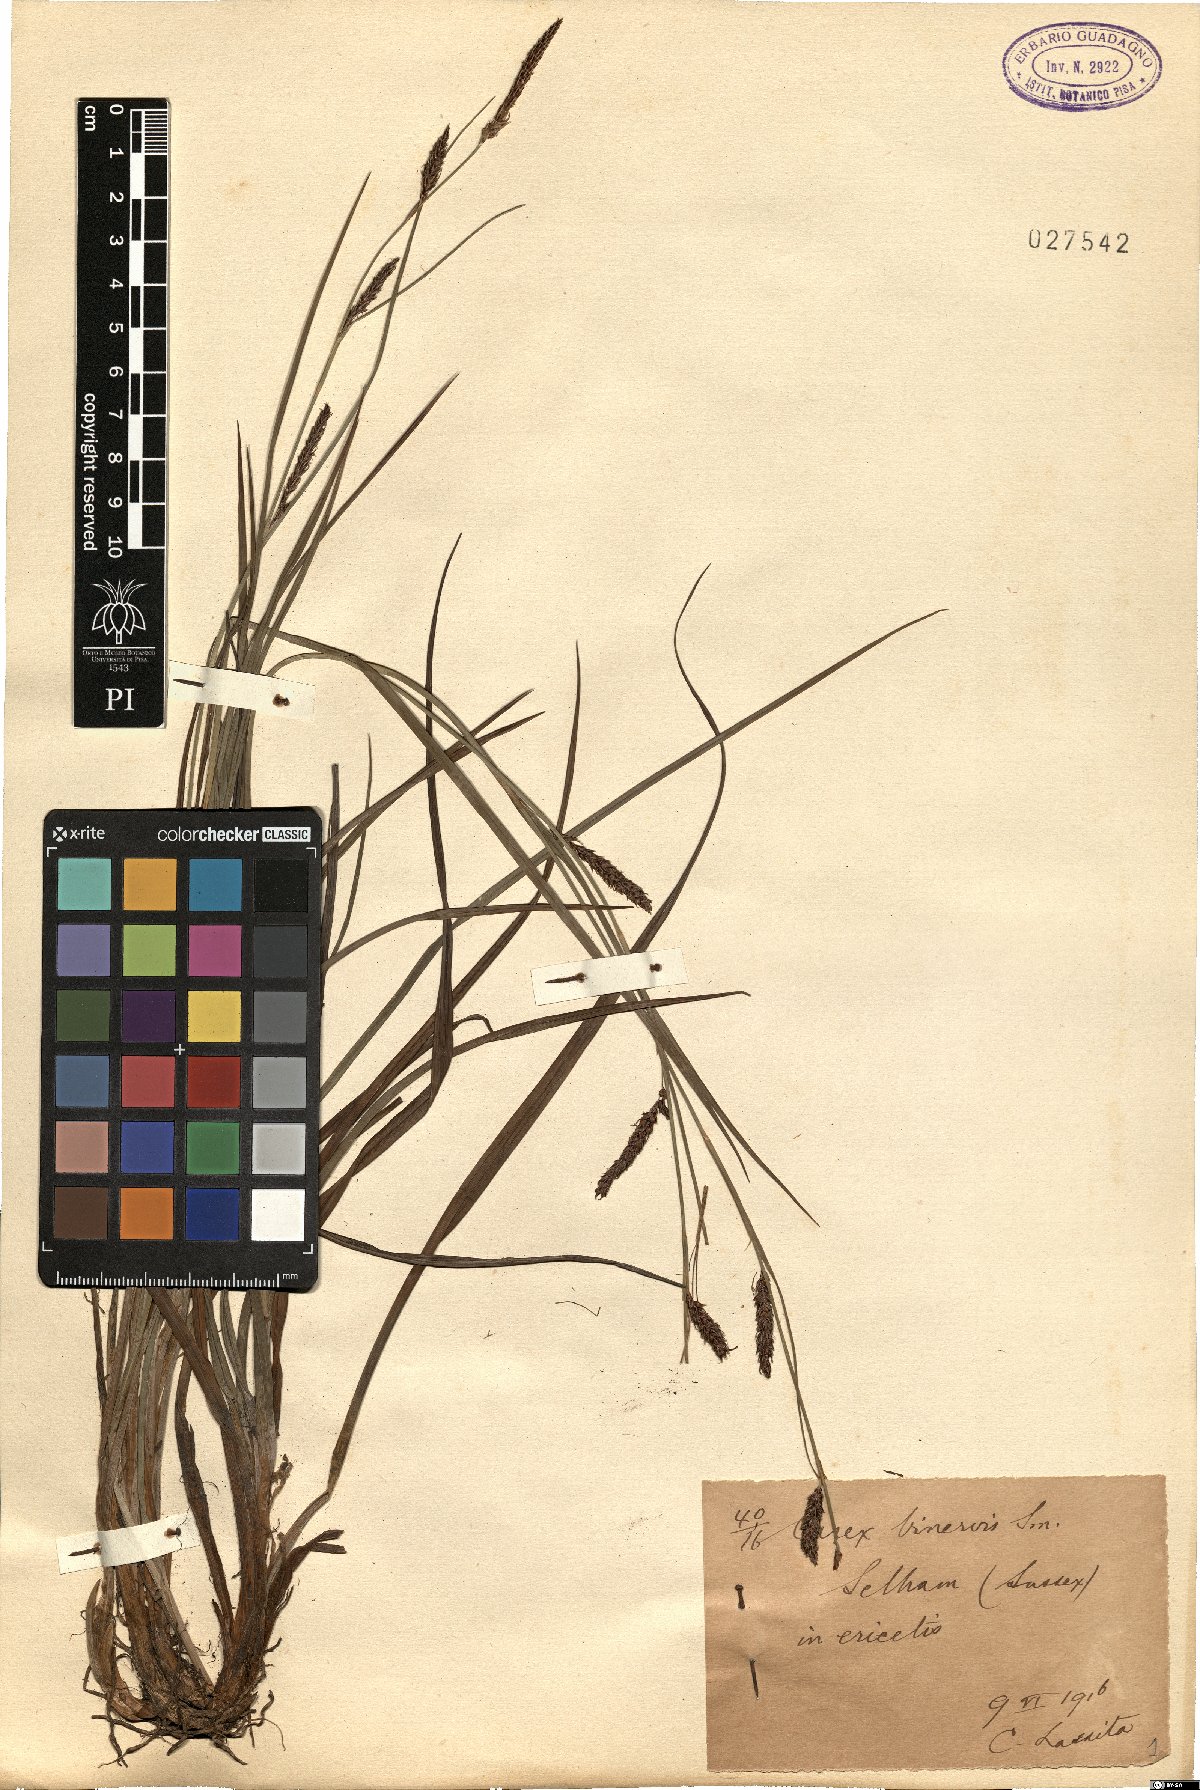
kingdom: Plantae
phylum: Tracheophyta
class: Liliopsida
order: Poales
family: Cyperaceae
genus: Carex
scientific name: Carex binervis
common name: Green-ribbed sedge
